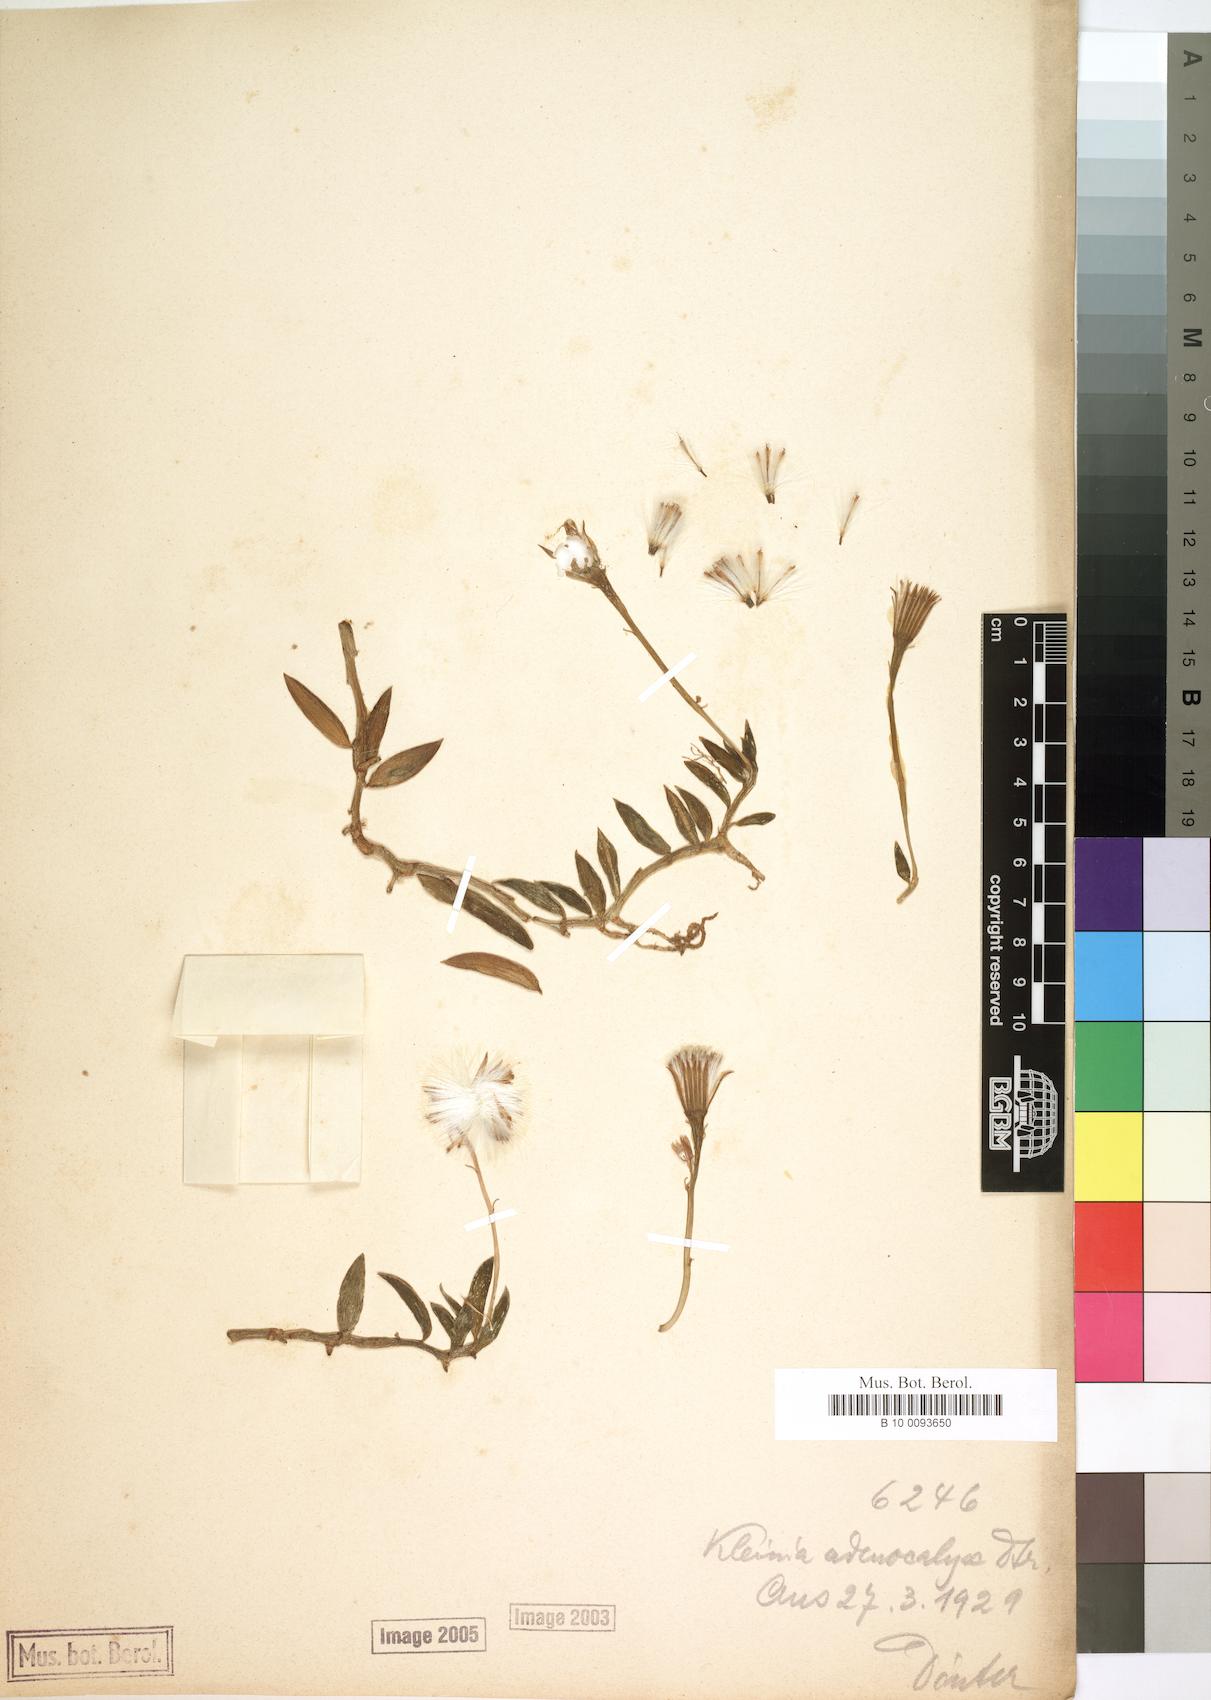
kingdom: Plantae
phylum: Tracheophyta
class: Magnoliopsida
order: Asterales
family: Asteraceae
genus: Curio
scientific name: Curio radicans
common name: Creeping-berry
